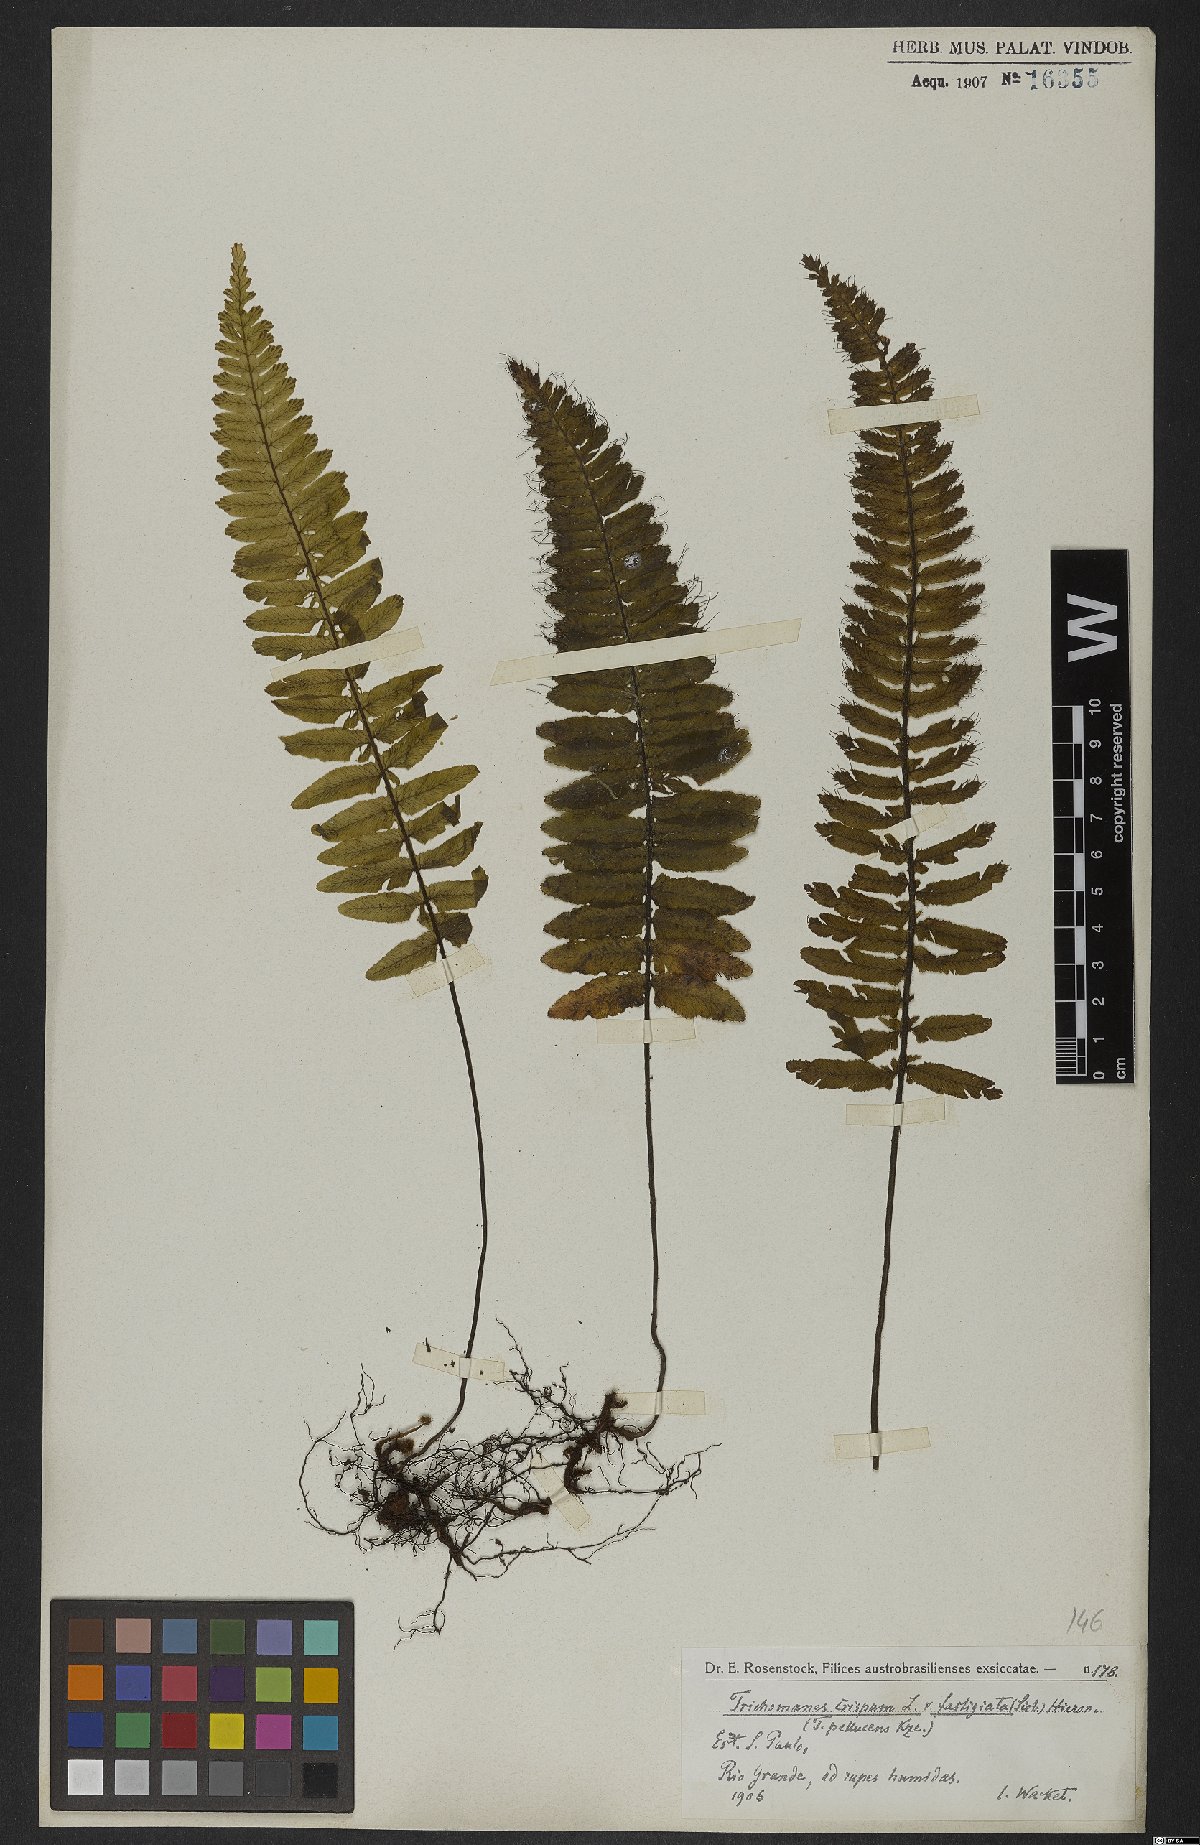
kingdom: Plantae
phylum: Tracheophyta
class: Polypodiopsida
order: Hymenophyllales
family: Hymenophyllaceae
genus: Trichomanes
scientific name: Trichomanes pellucens
